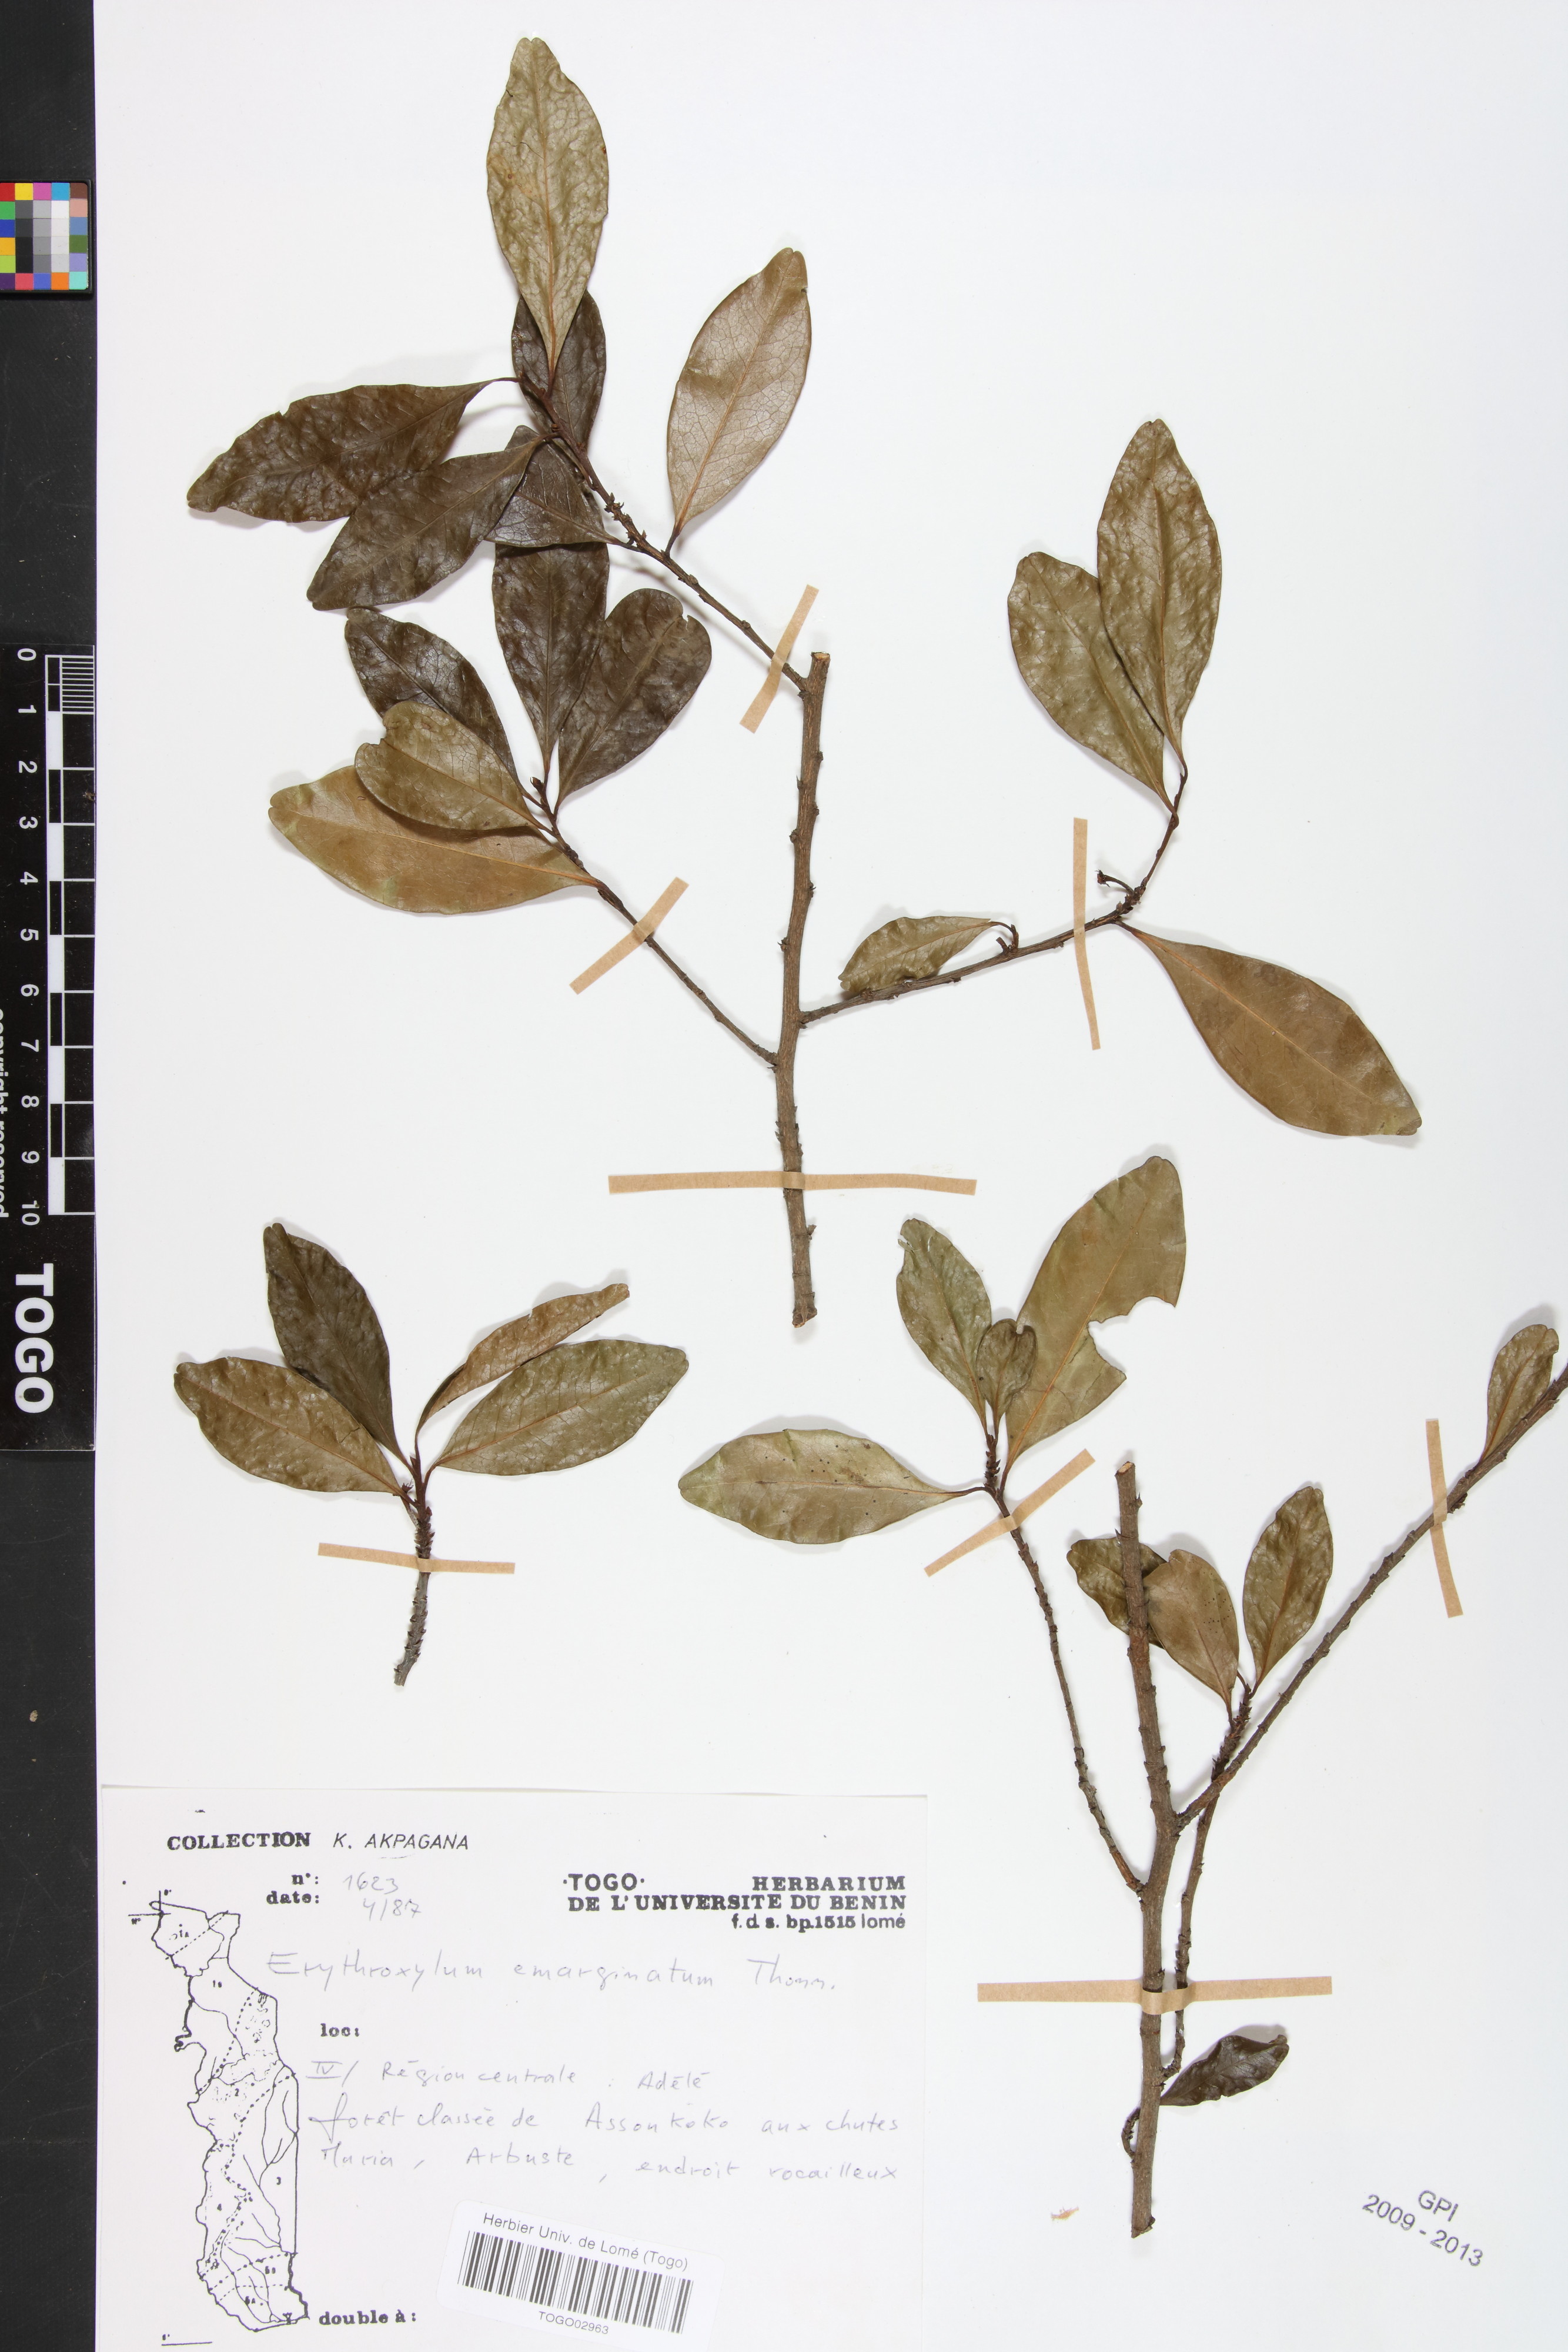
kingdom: Plantae
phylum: Tracheophyta
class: Magnoliopsida
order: Malpighiales
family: Erythroxylaceae
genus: Erythroxylum
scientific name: Erythroxylum emarginatum
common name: African coca-tree
